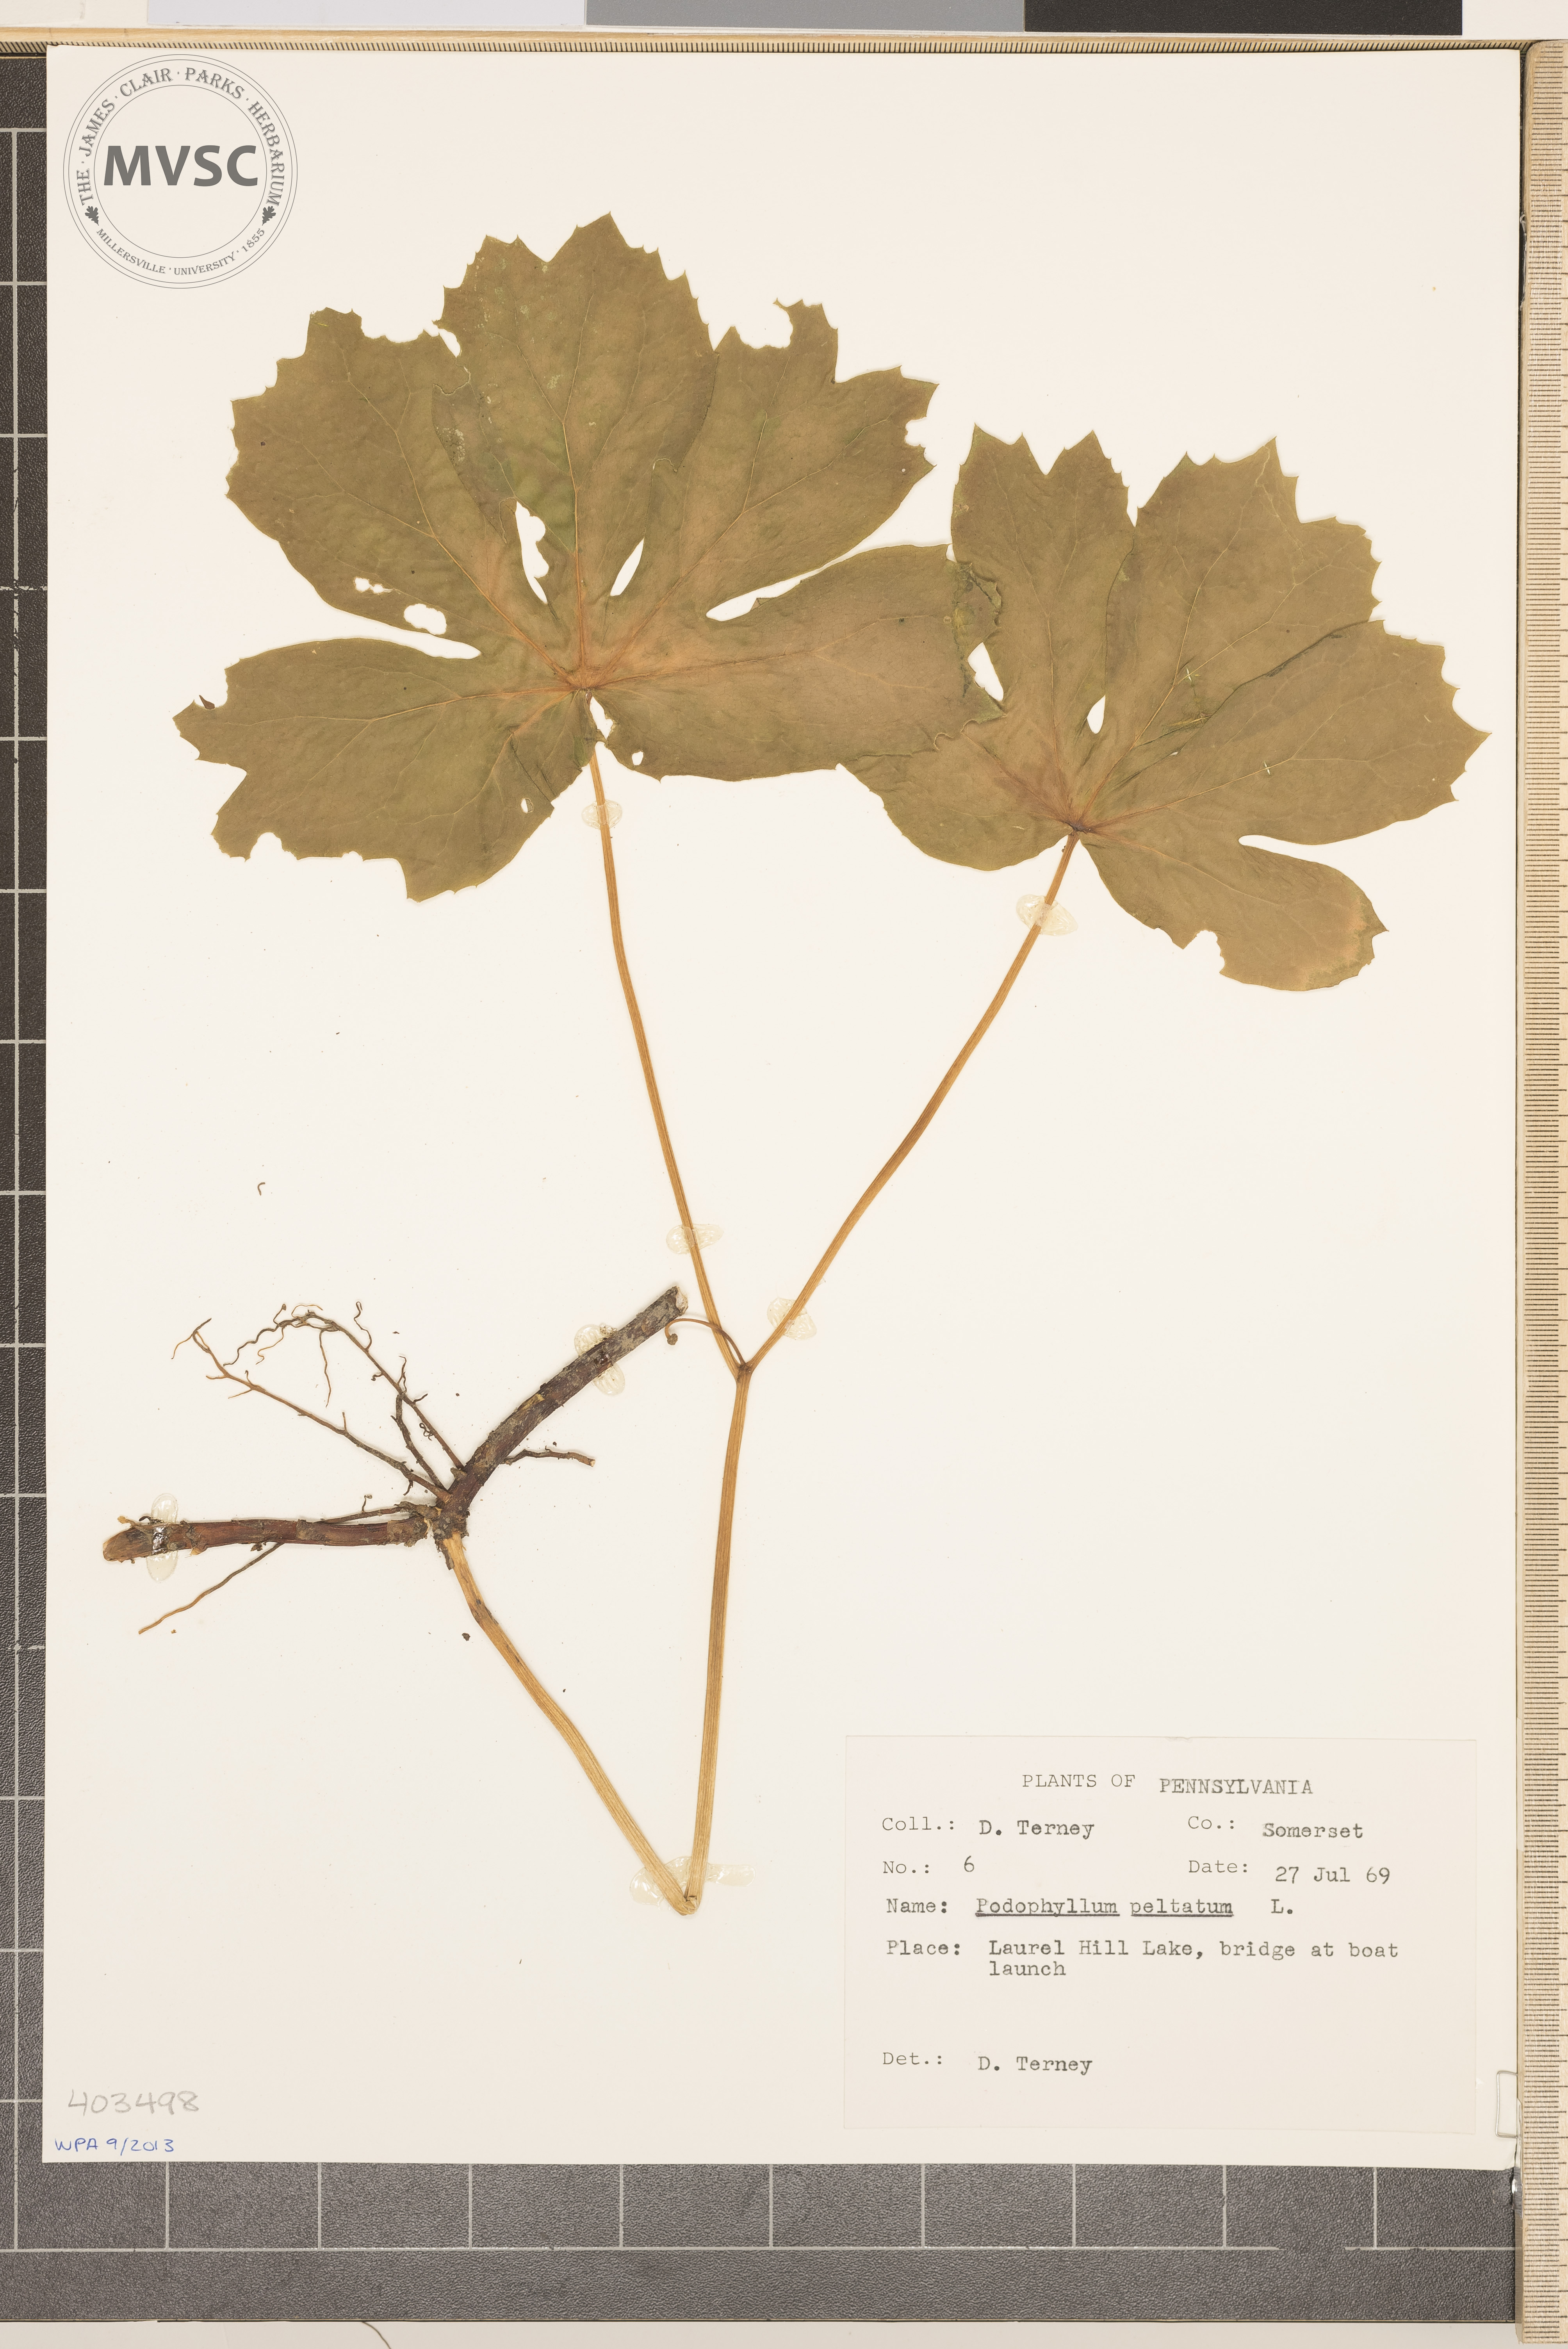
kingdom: Plantae
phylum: Tracheophyta
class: Magnoliopsida
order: Ranunculales
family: Berberidaceae
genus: Podophyllum
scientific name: Podophyllum peltatum
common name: May-Apple
